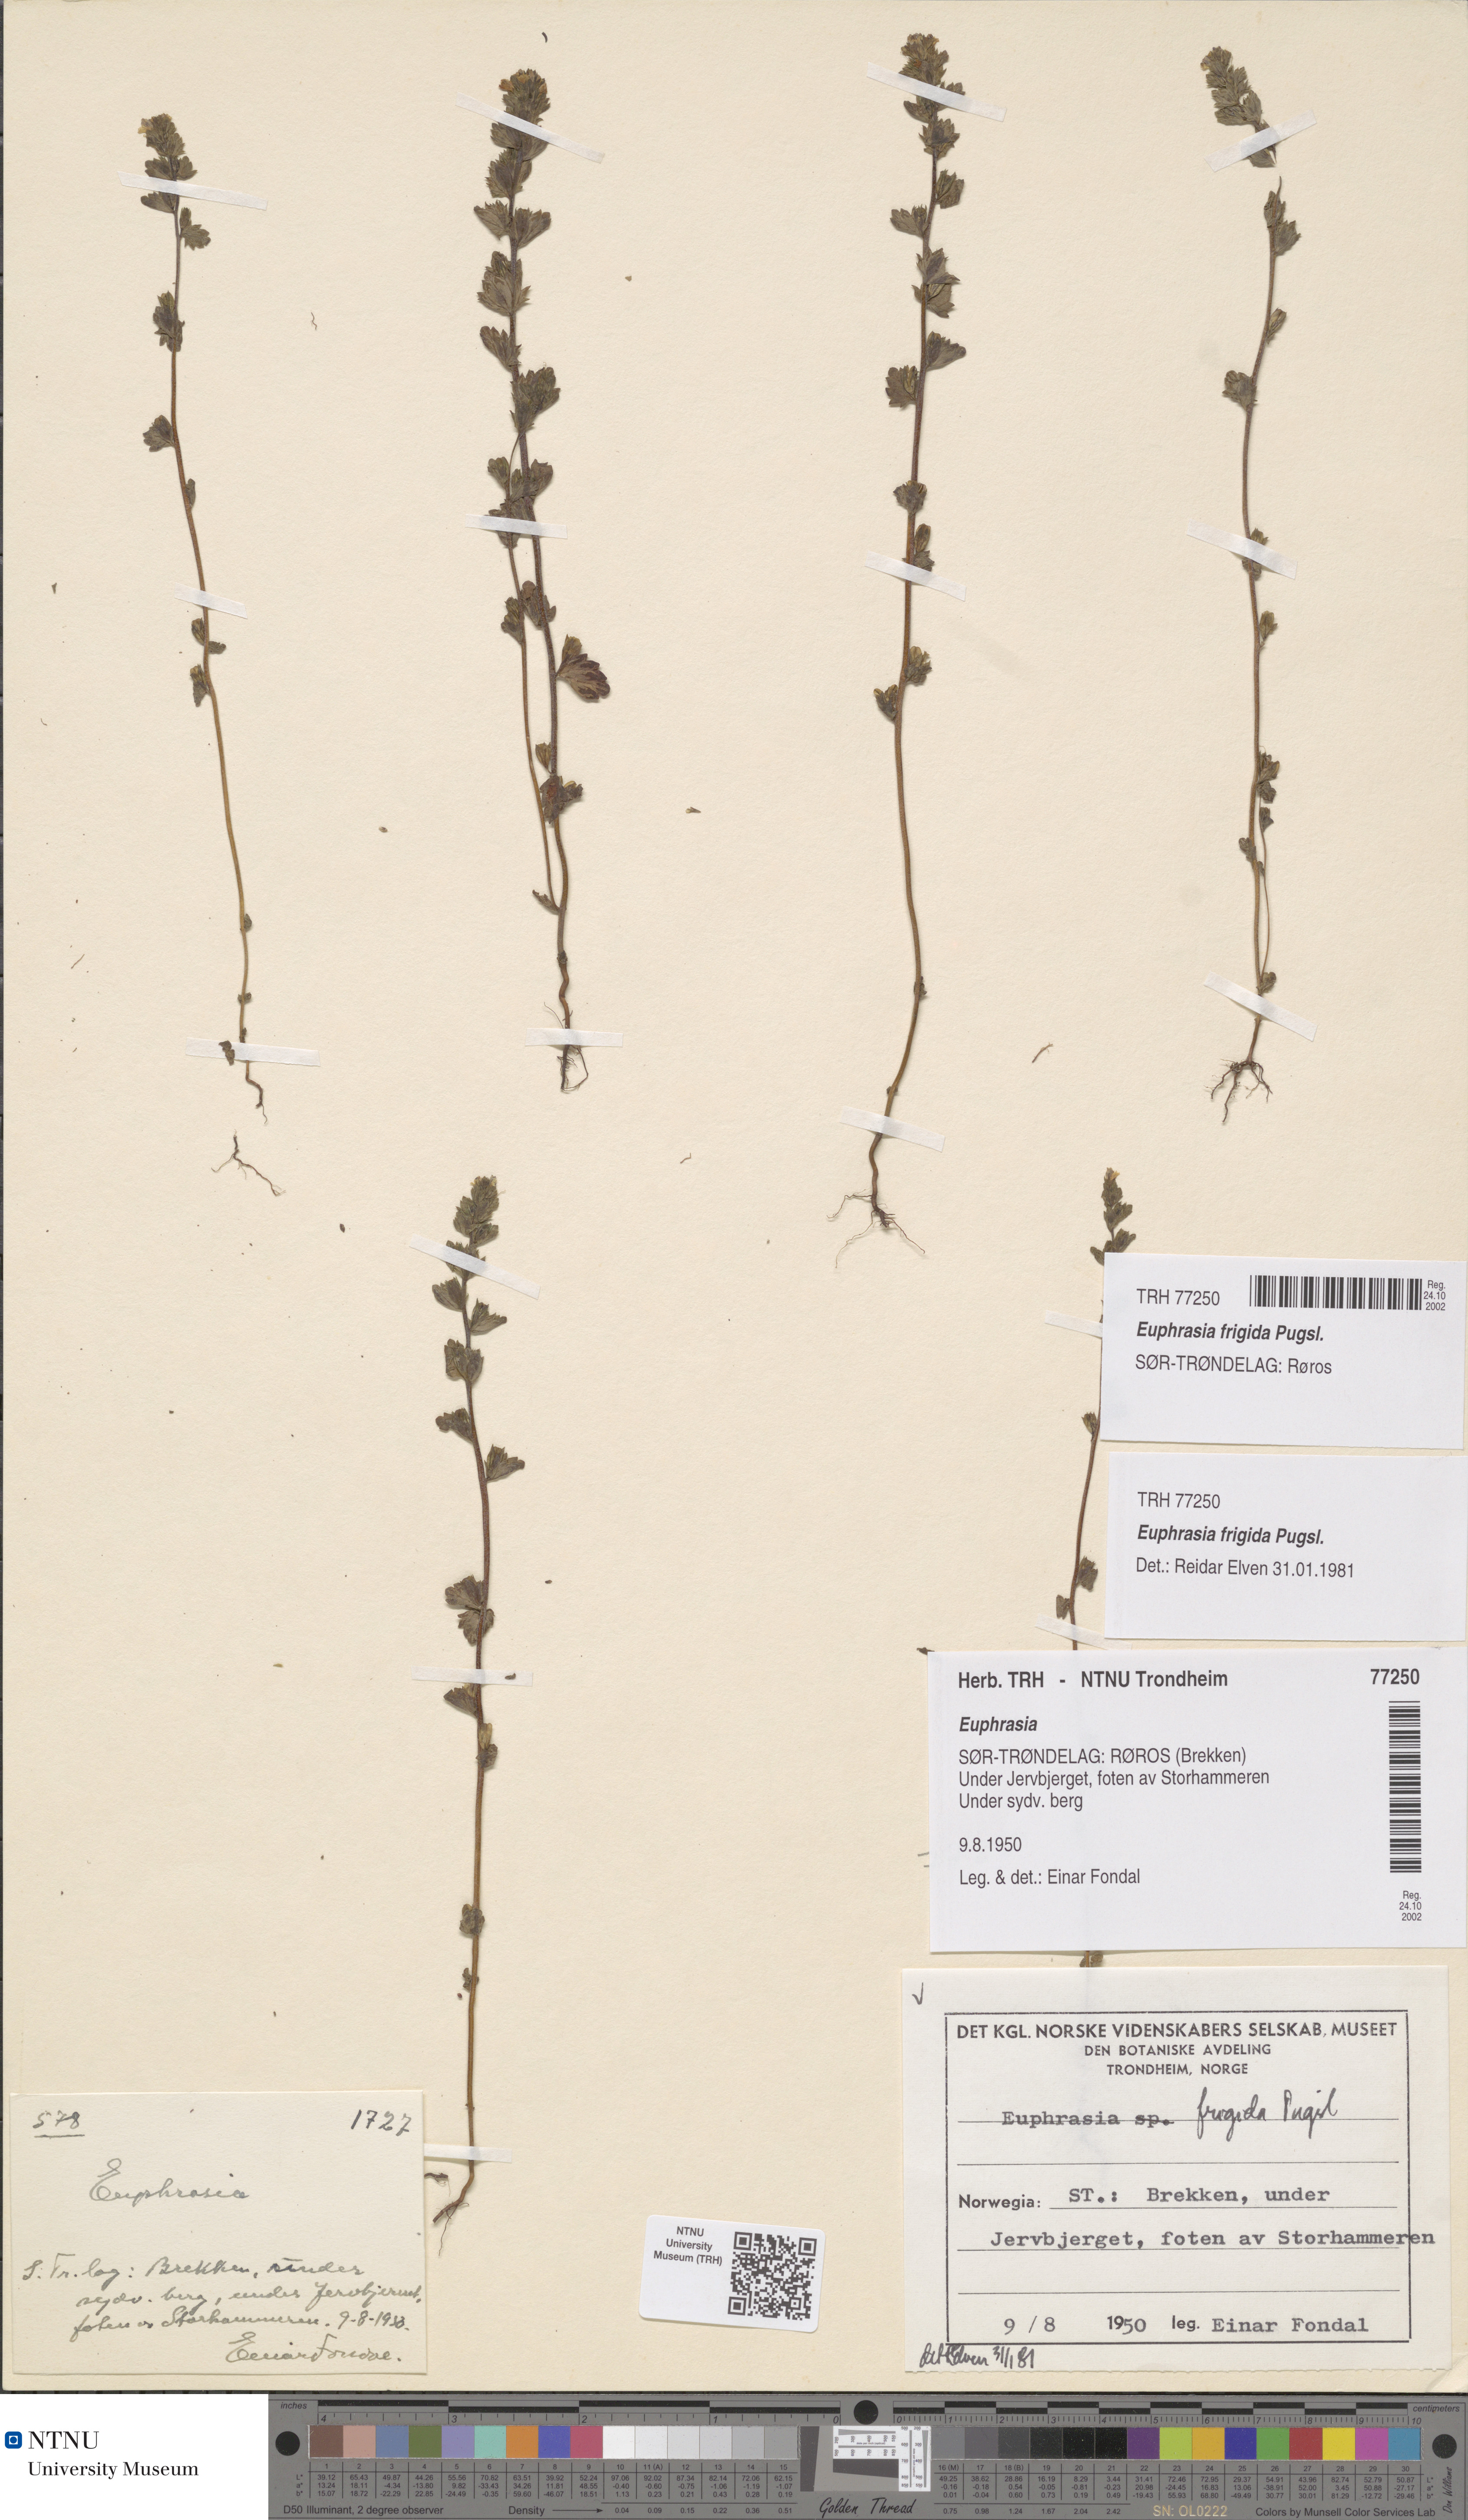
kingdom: Plantae
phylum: Tracheophyta
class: Magnoliopsida
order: Lamiales
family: Orobanchaceae
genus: Euphrasia
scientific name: Euphrasia wettsteinii
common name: Wettstein's eyebright
